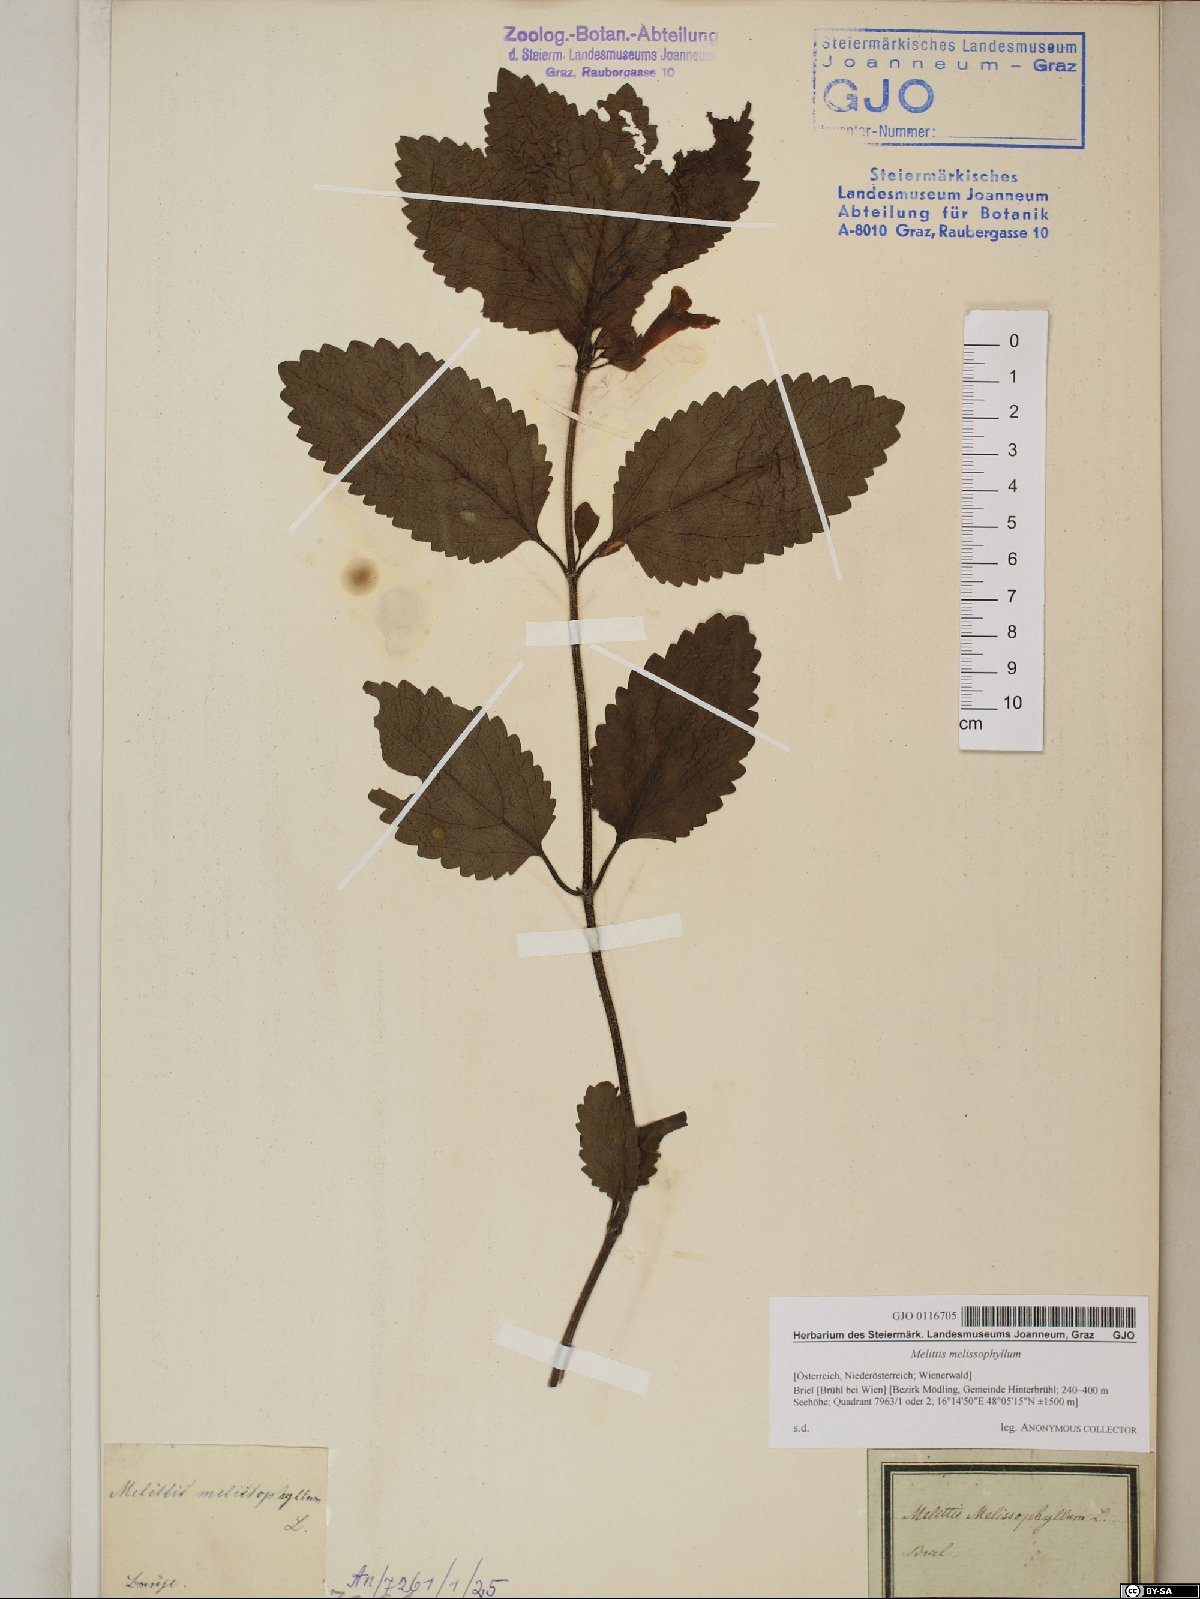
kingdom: Plantae
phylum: Tracheophyta
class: Magnoliopsida
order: Lamiales
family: Lamiaceae
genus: Melittis
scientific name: Melittis melissophyllum
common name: Bastard balm
